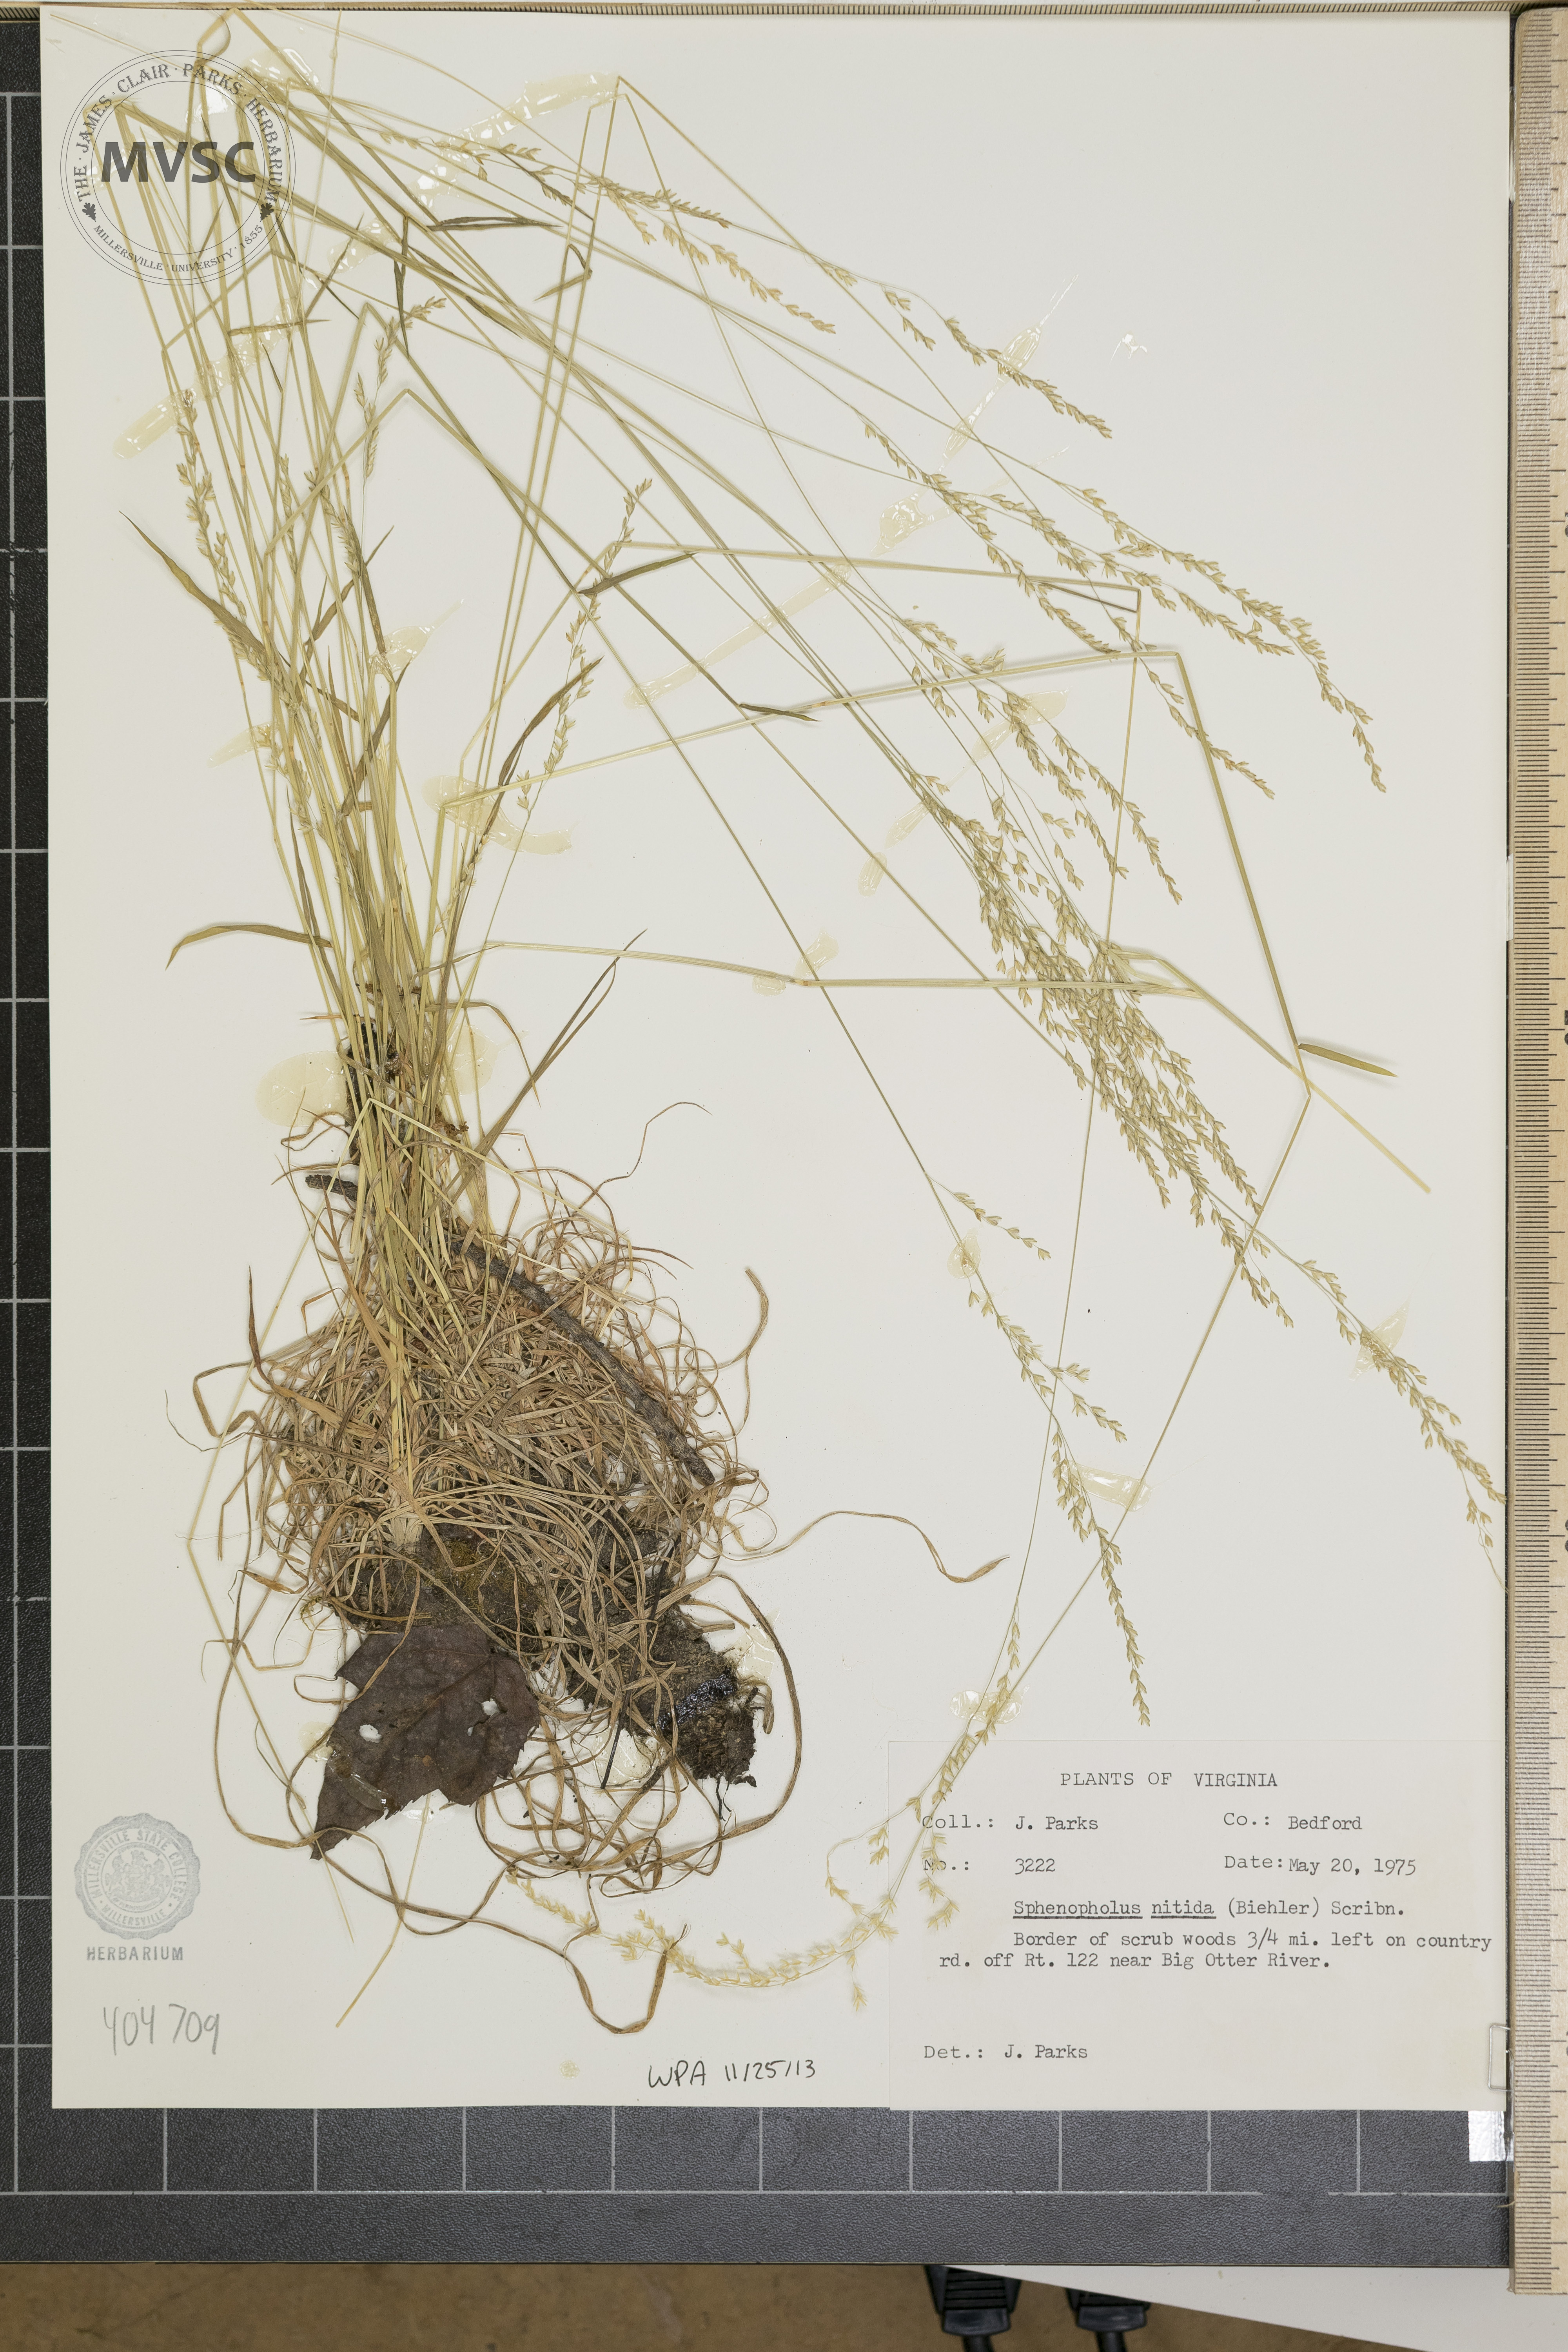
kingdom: Plantae
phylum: Tracheophyta
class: Liliopsida
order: Poales
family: Poaceae
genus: Sphenopholis
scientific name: Sphenopholis nitida
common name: Shiny wedgegrass
